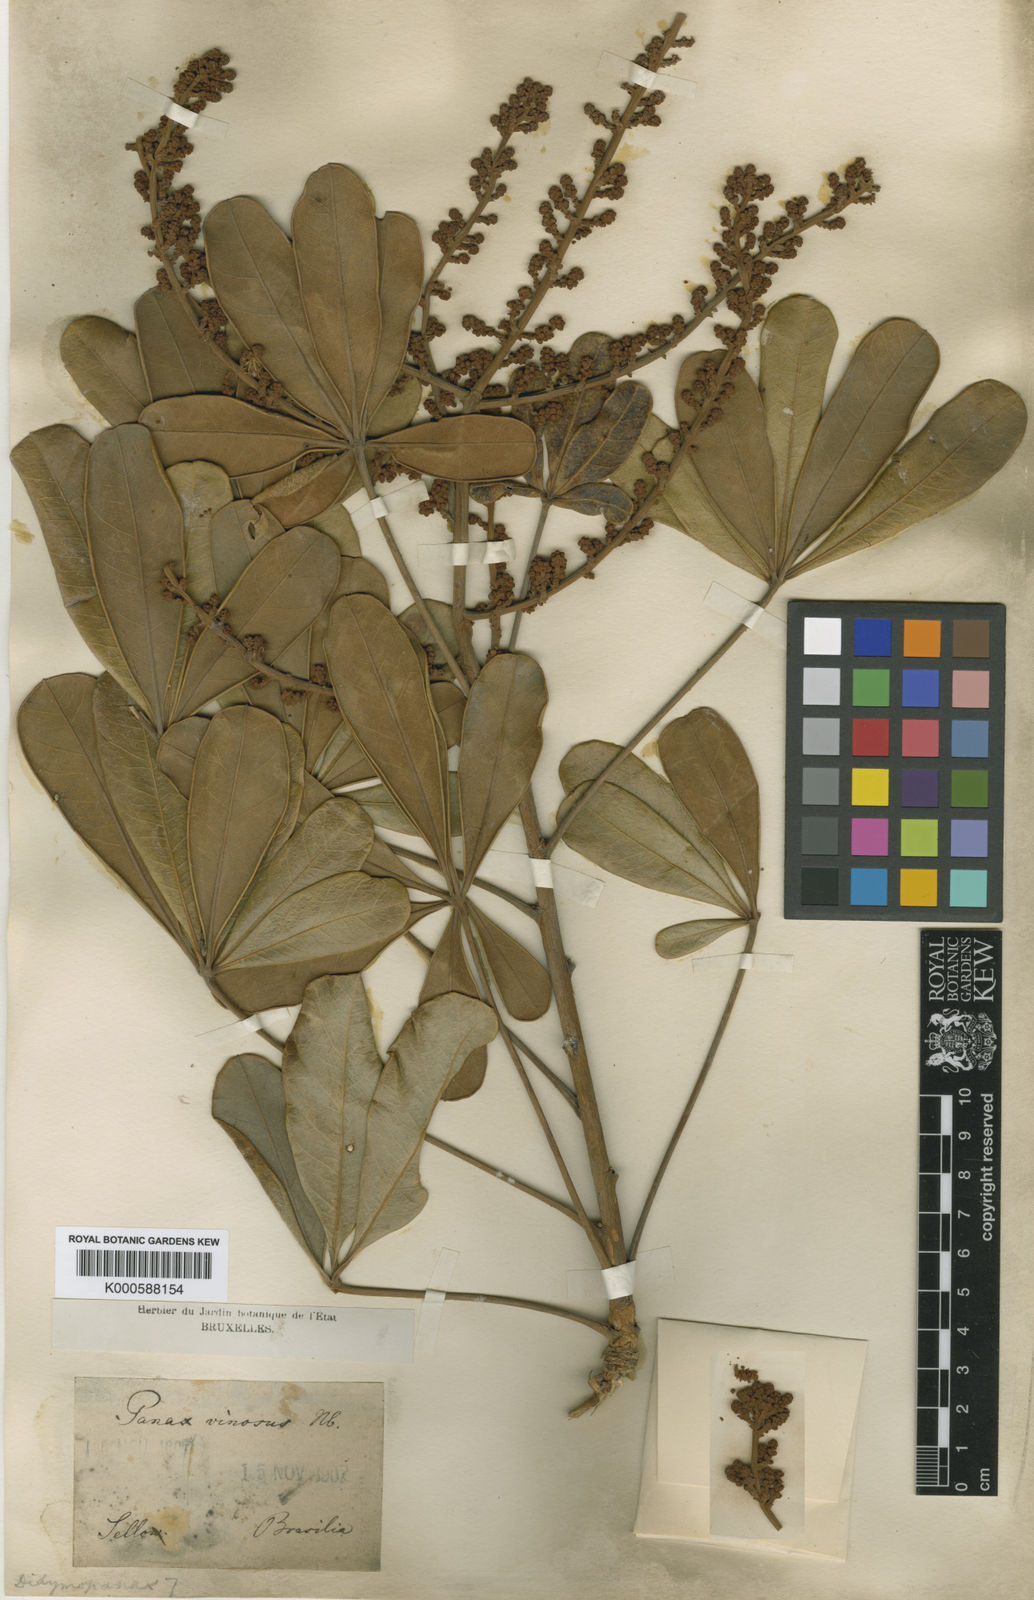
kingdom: Plantae
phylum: Tracheophyta
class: Magnoliopsida
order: Apiales
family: Araliaceae
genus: Didymopanax
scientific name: Didymopanax vinosus
